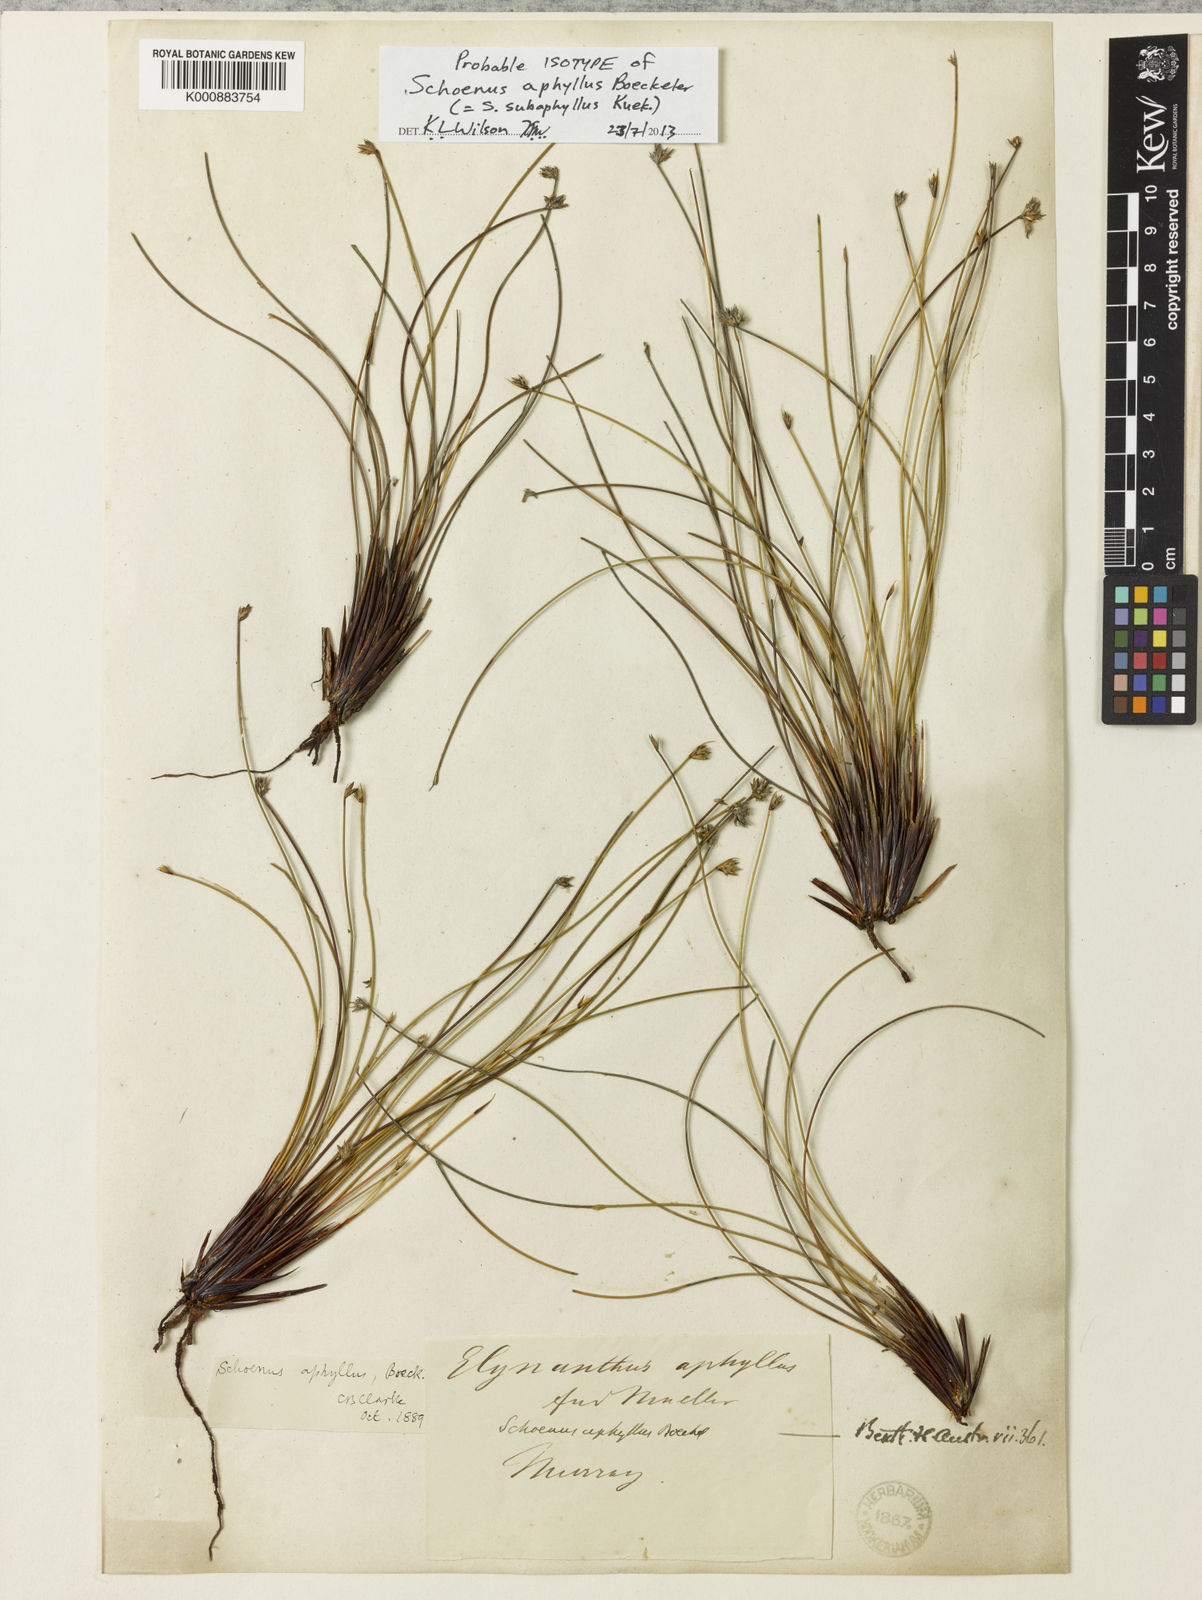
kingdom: Plantae
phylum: Tracheophyta
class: Liliopsida
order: Poales
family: Cyperaceae
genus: Schoenus
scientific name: Schoenus
